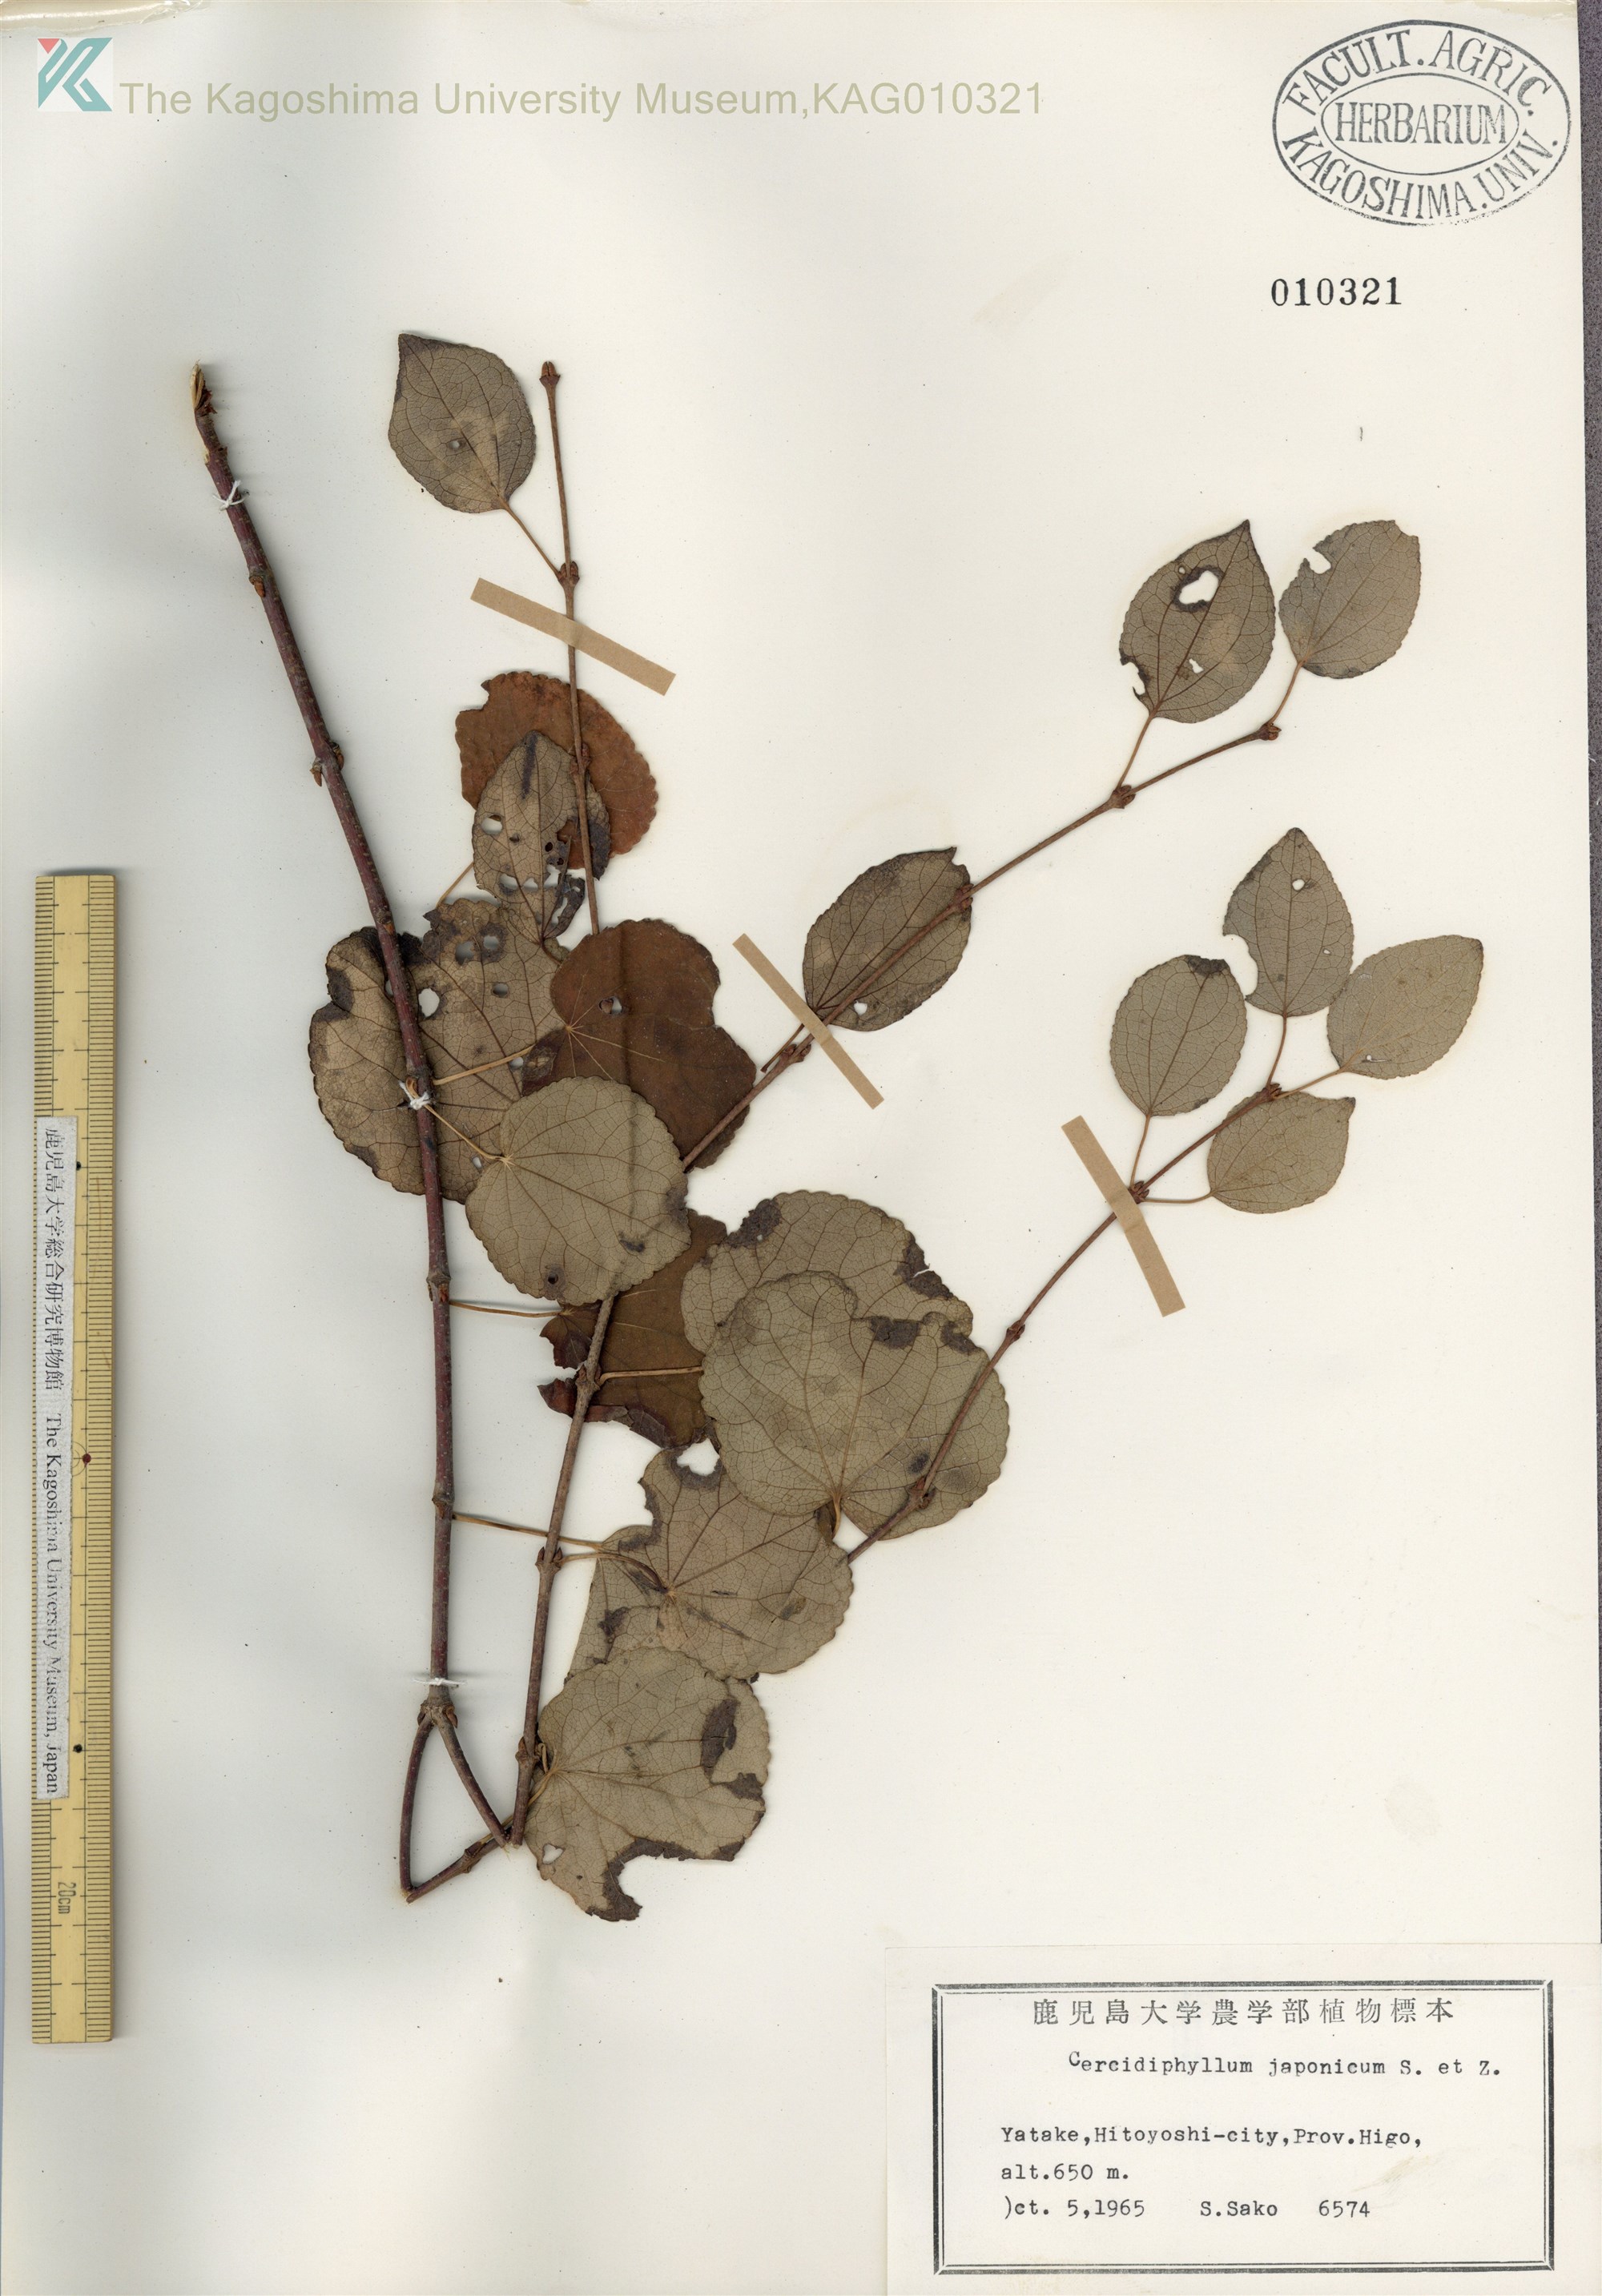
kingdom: Plantae
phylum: Tracheophyta
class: Magnoliopsida
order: Saxifragales
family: Cercidiphyllaceae
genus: Cercidiphyllum
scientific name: Cercidiphyllum japonicum
